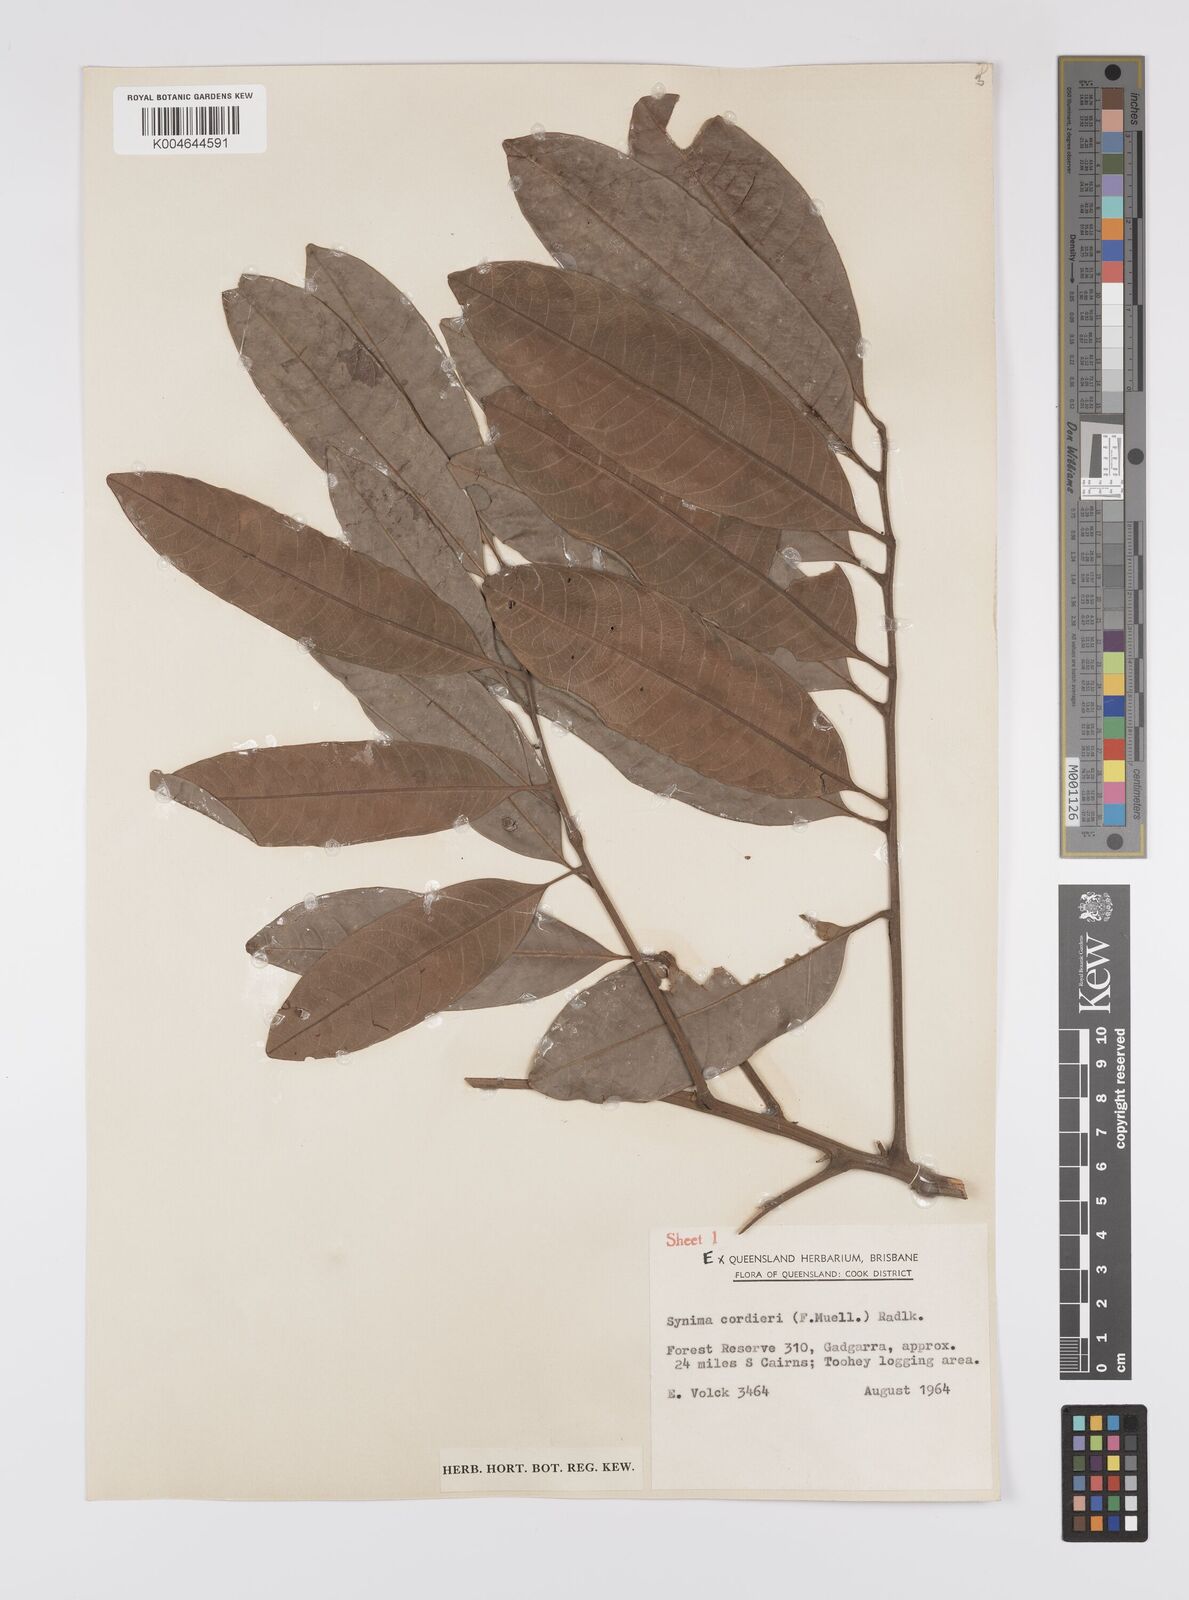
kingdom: Plantae
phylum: Tracheophyta
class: Magnoliopsida
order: Sapindales
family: Sapindaceae
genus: Synima
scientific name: Synima
